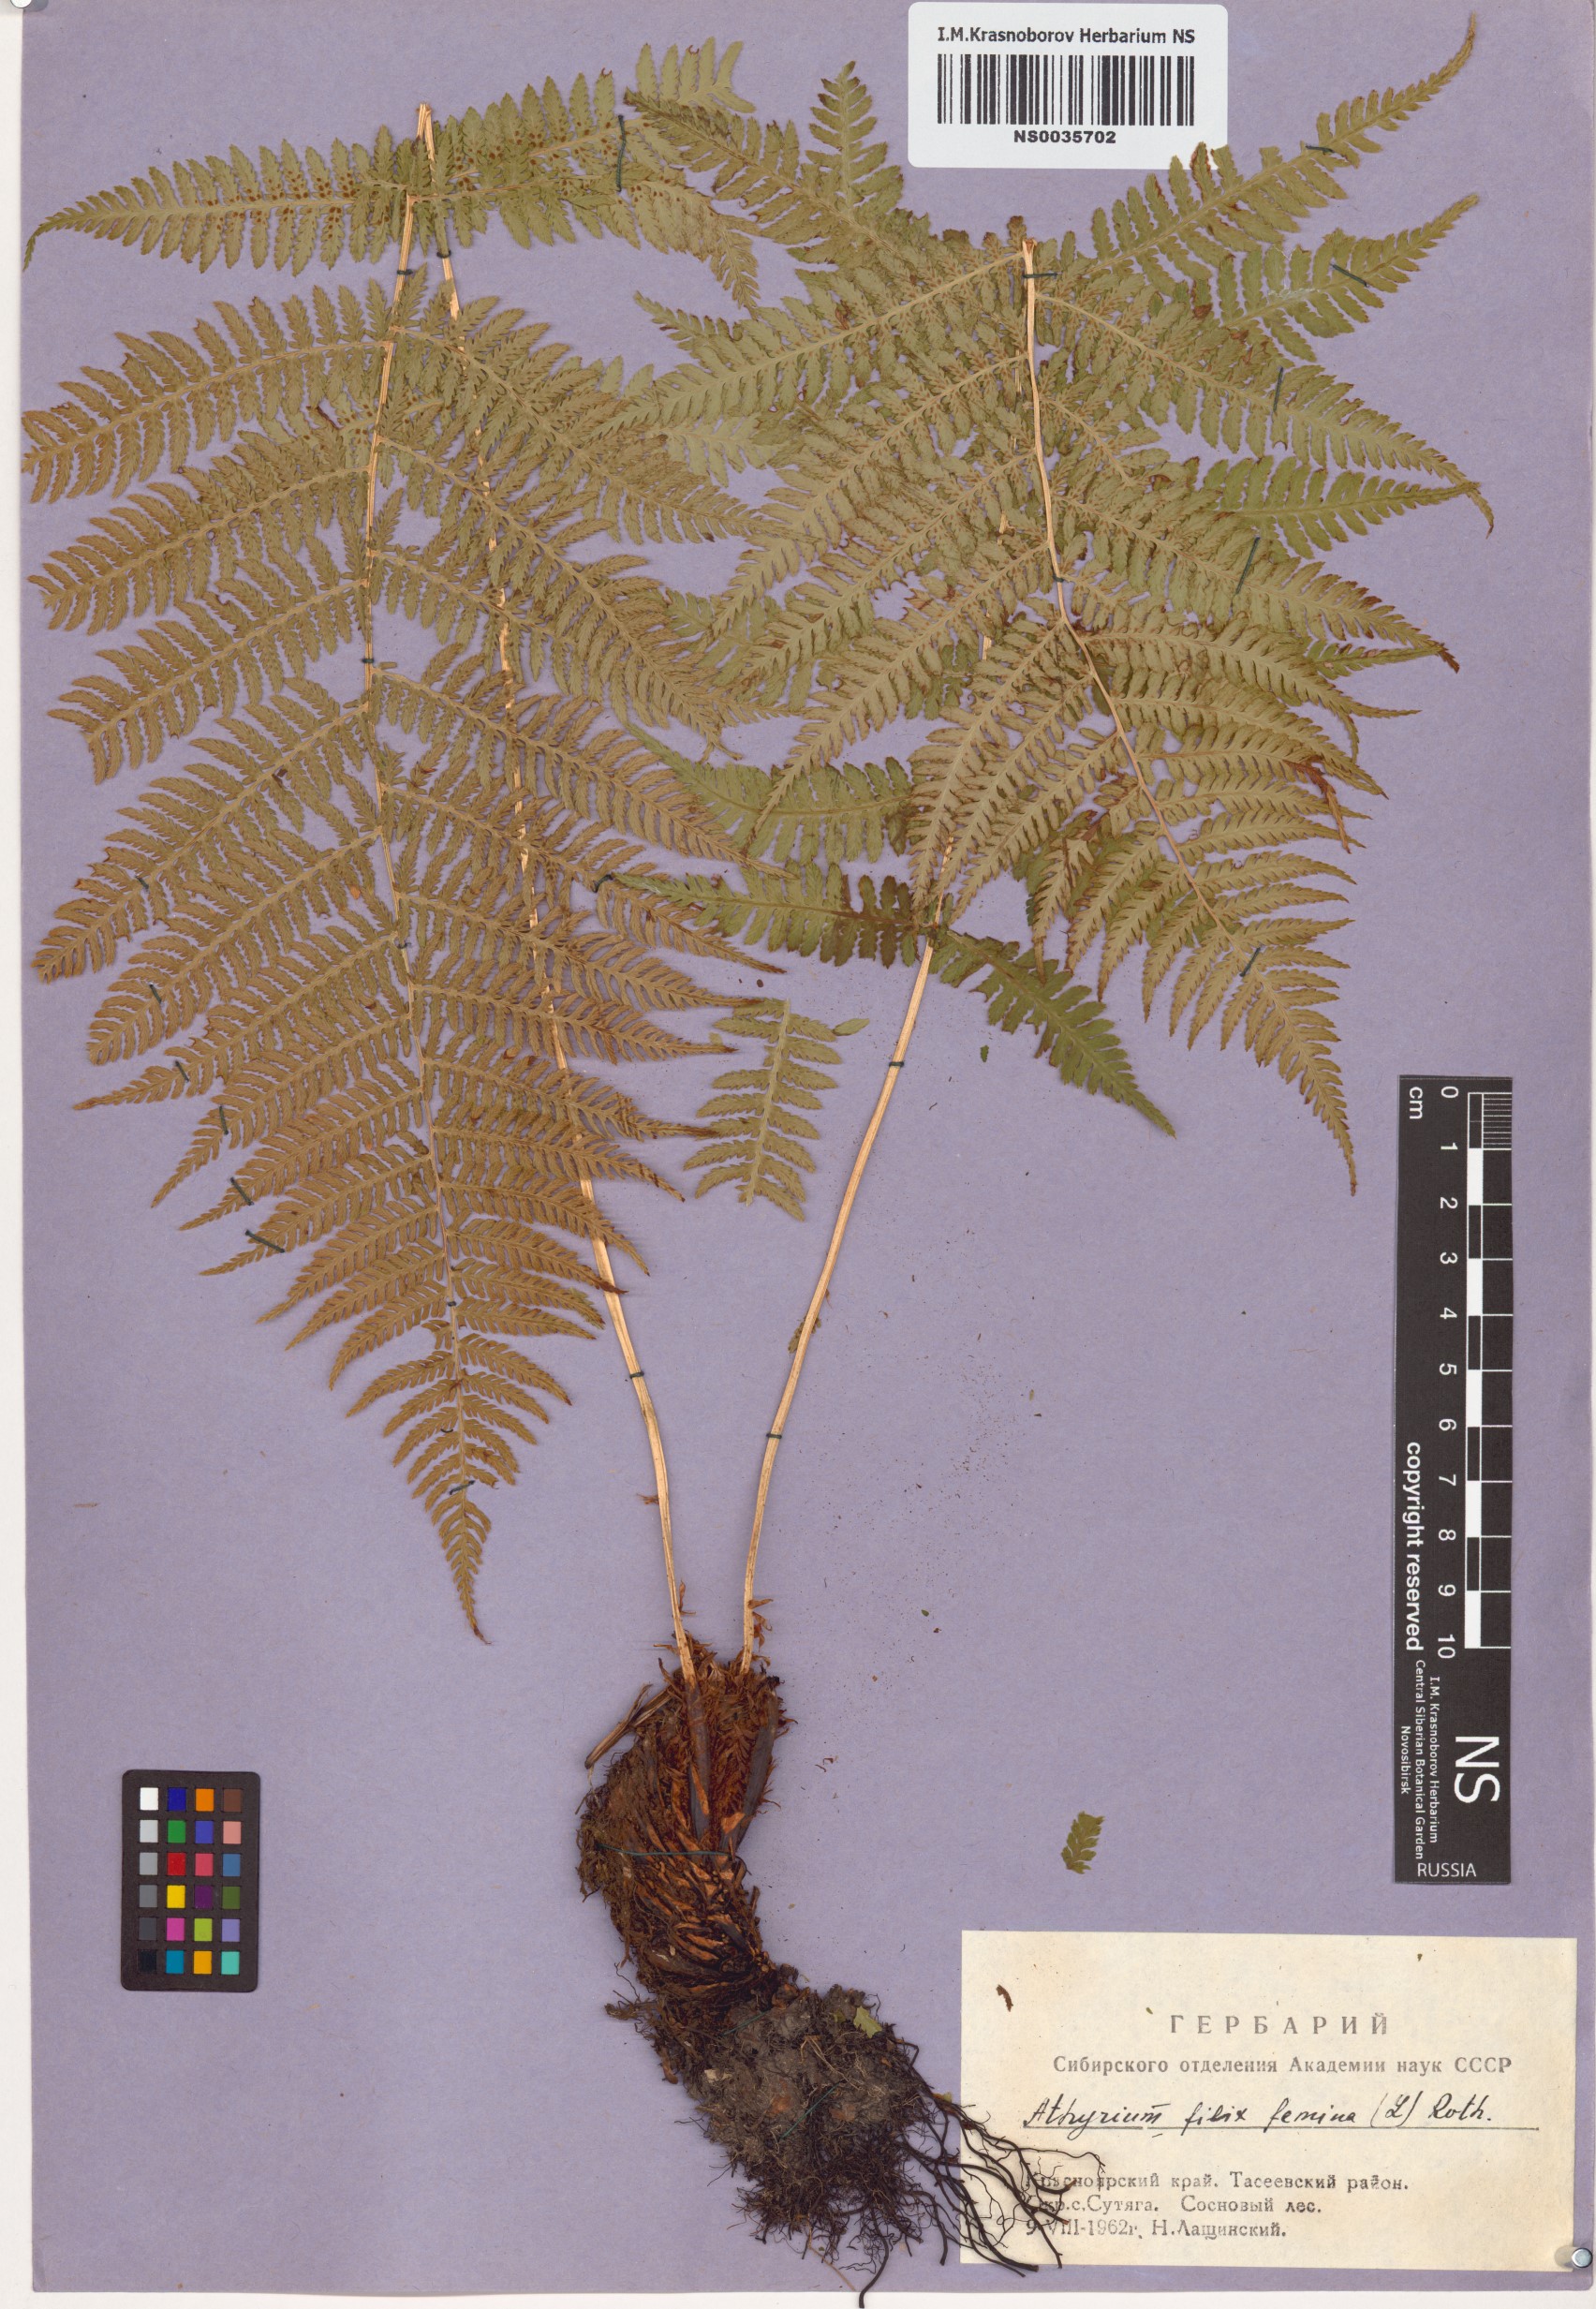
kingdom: Plantae
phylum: Tracheophyta
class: Polypodiopsida
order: Polypodiales
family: Athyriaceae
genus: Athyrium
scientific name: Athyrium filix-femina
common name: Lady fern
